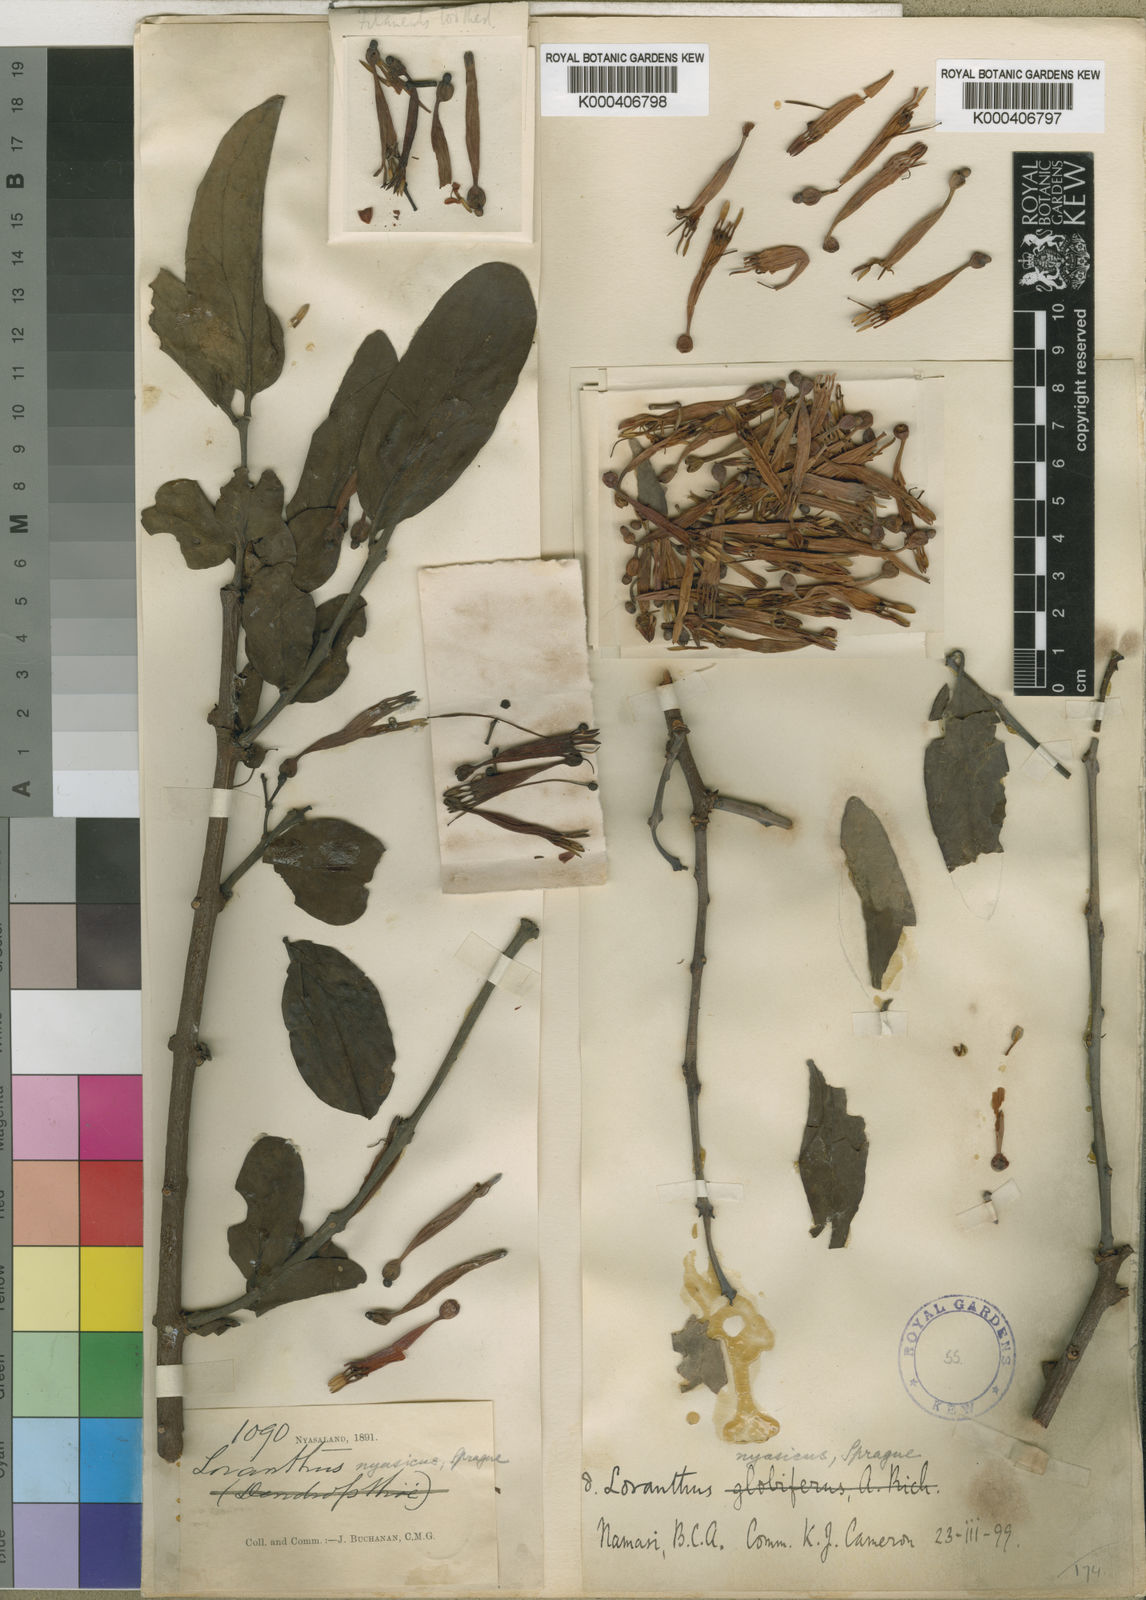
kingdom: Plantae
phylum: Tracheophyta
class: Magnoliopsida
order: Santalales
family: Loranthaceae
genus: Agelanthus
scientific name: Agelanthus nyasicus
